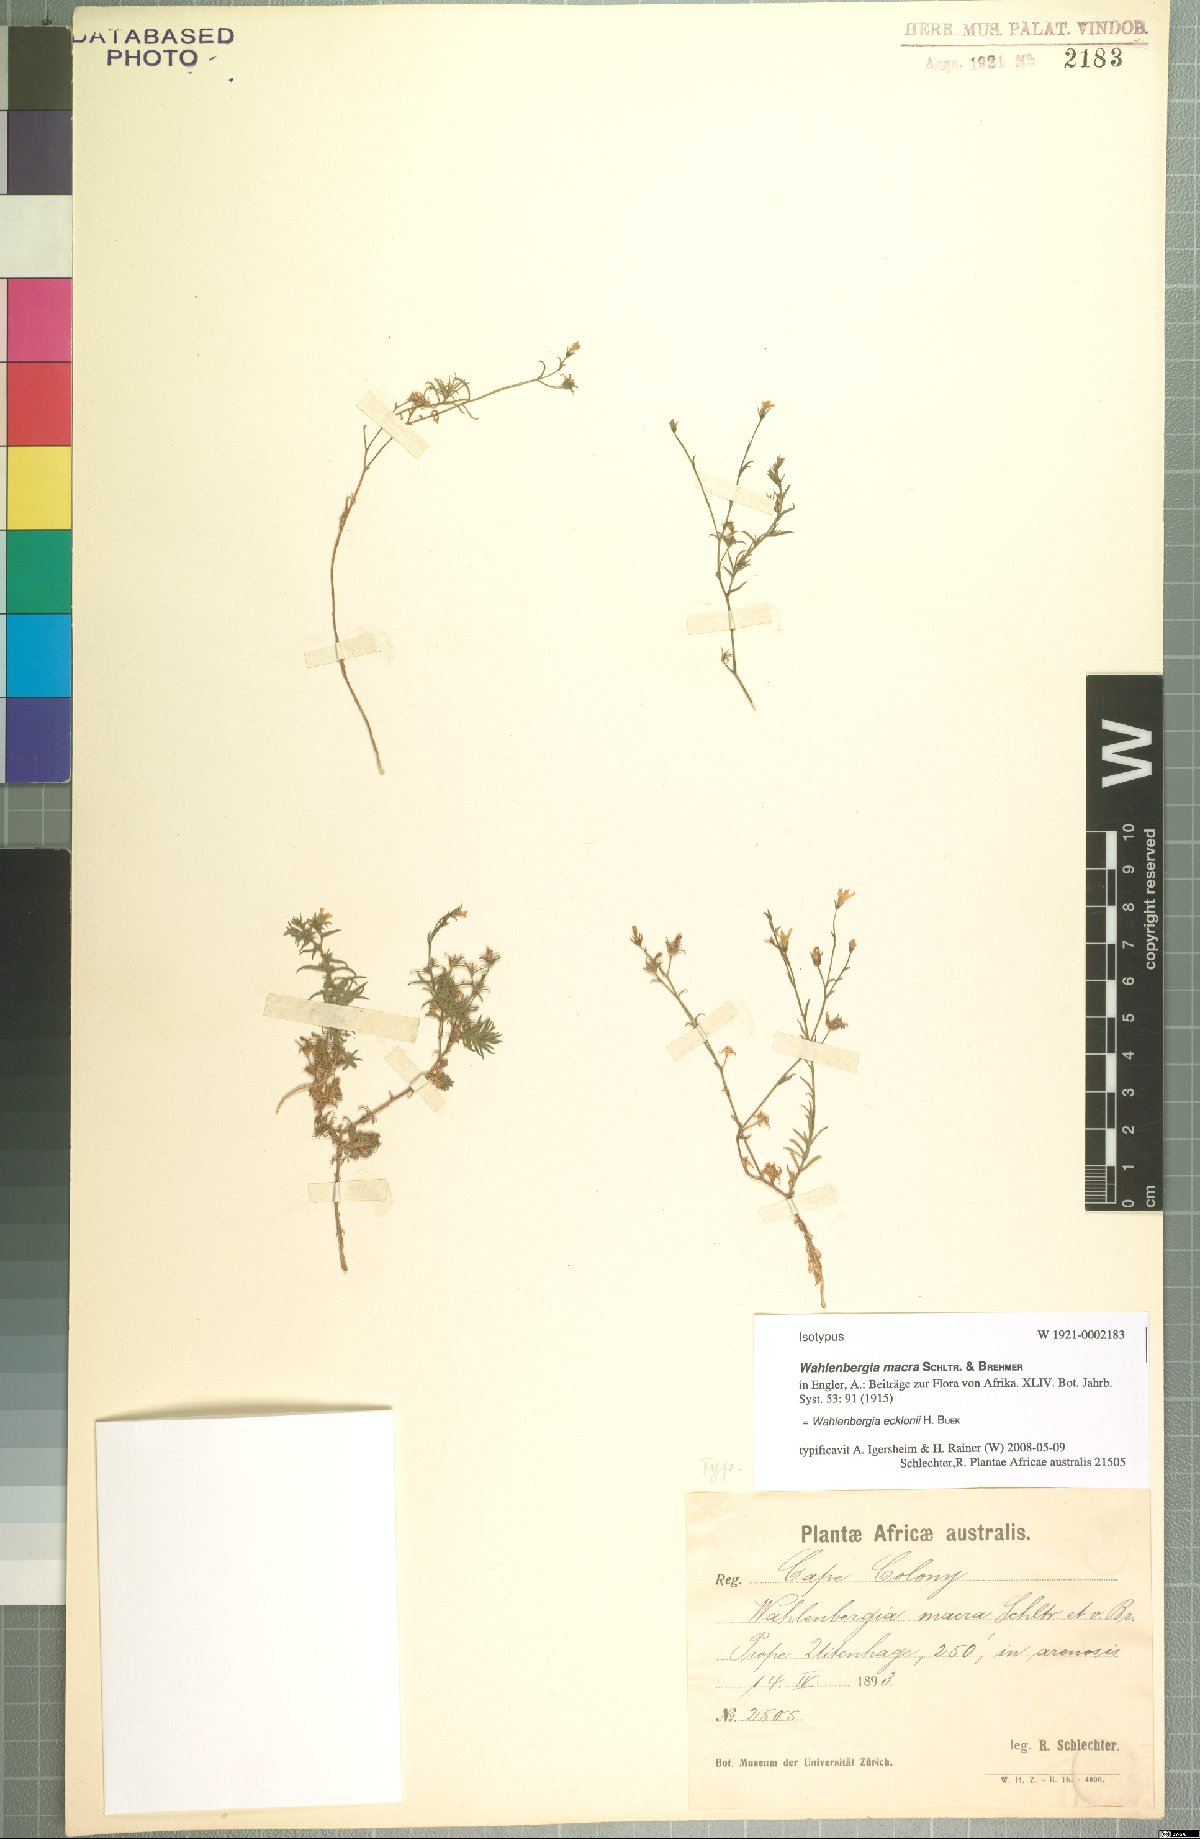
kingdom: Plantae
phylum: Tracheophyta
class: Magnoliopsida
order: Asterales
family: Campanulaceae
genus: Wahlenbergia
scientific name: Wahlenbergia ecklonii
